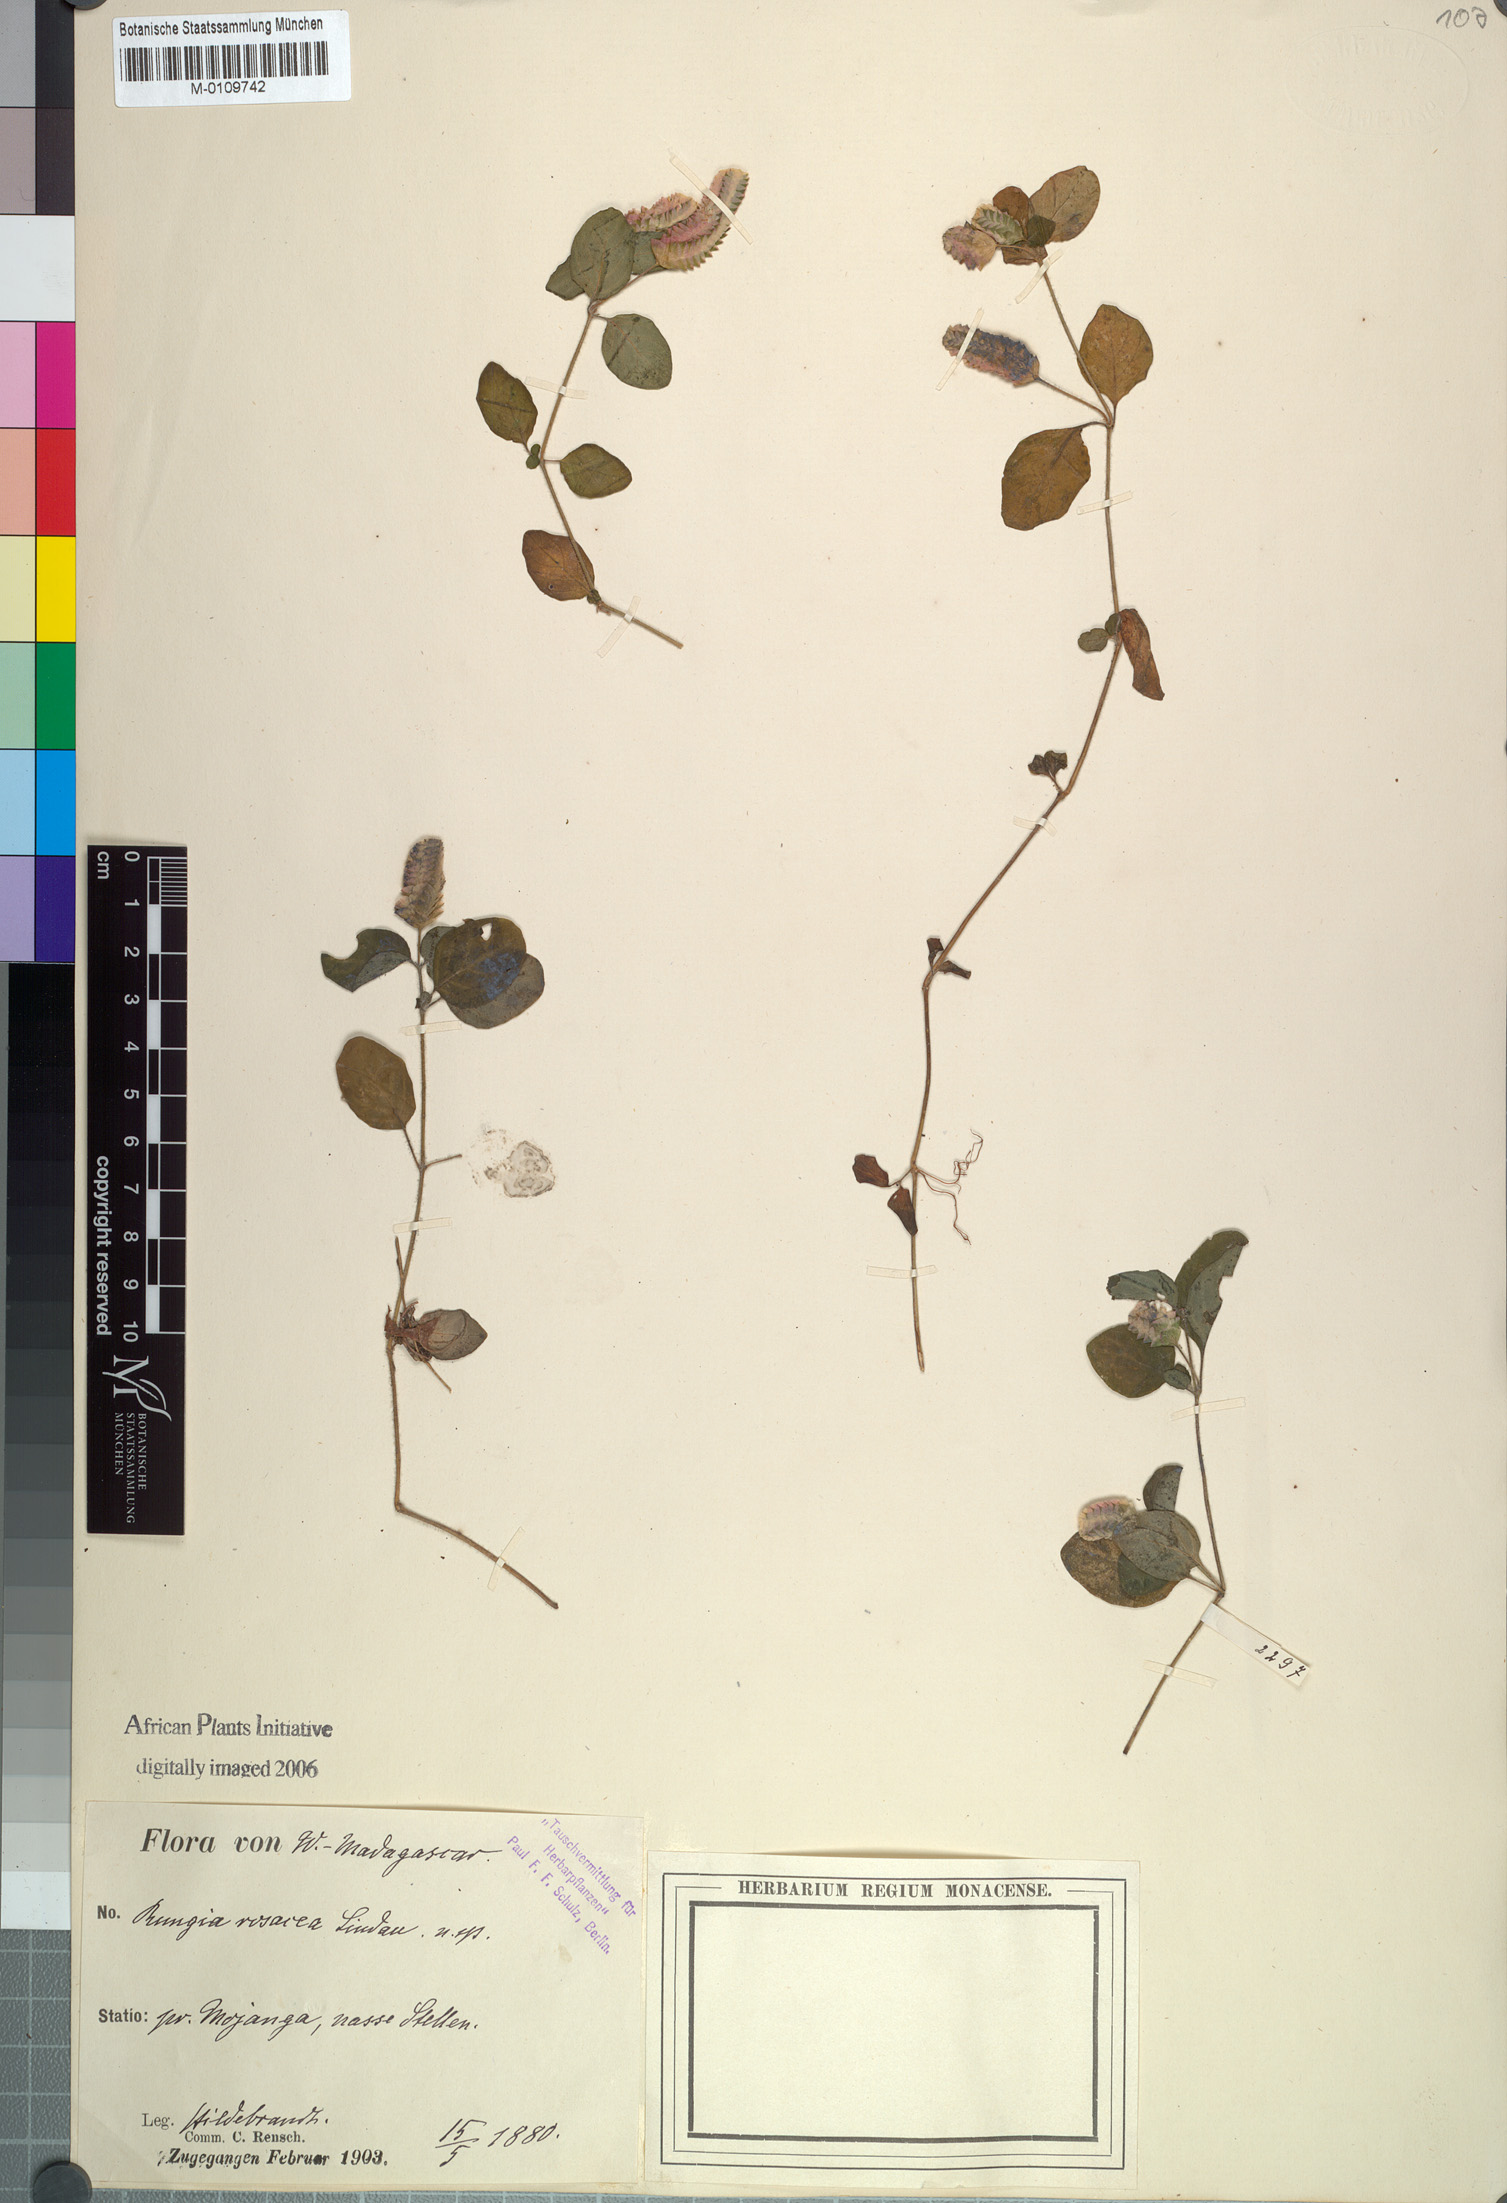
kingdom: Plantae
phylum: Tracheophyta
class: Magnoliopsida
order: Lamiales
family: Acanthaceae
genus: Anisostachya
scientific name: Anisostachya reptans
